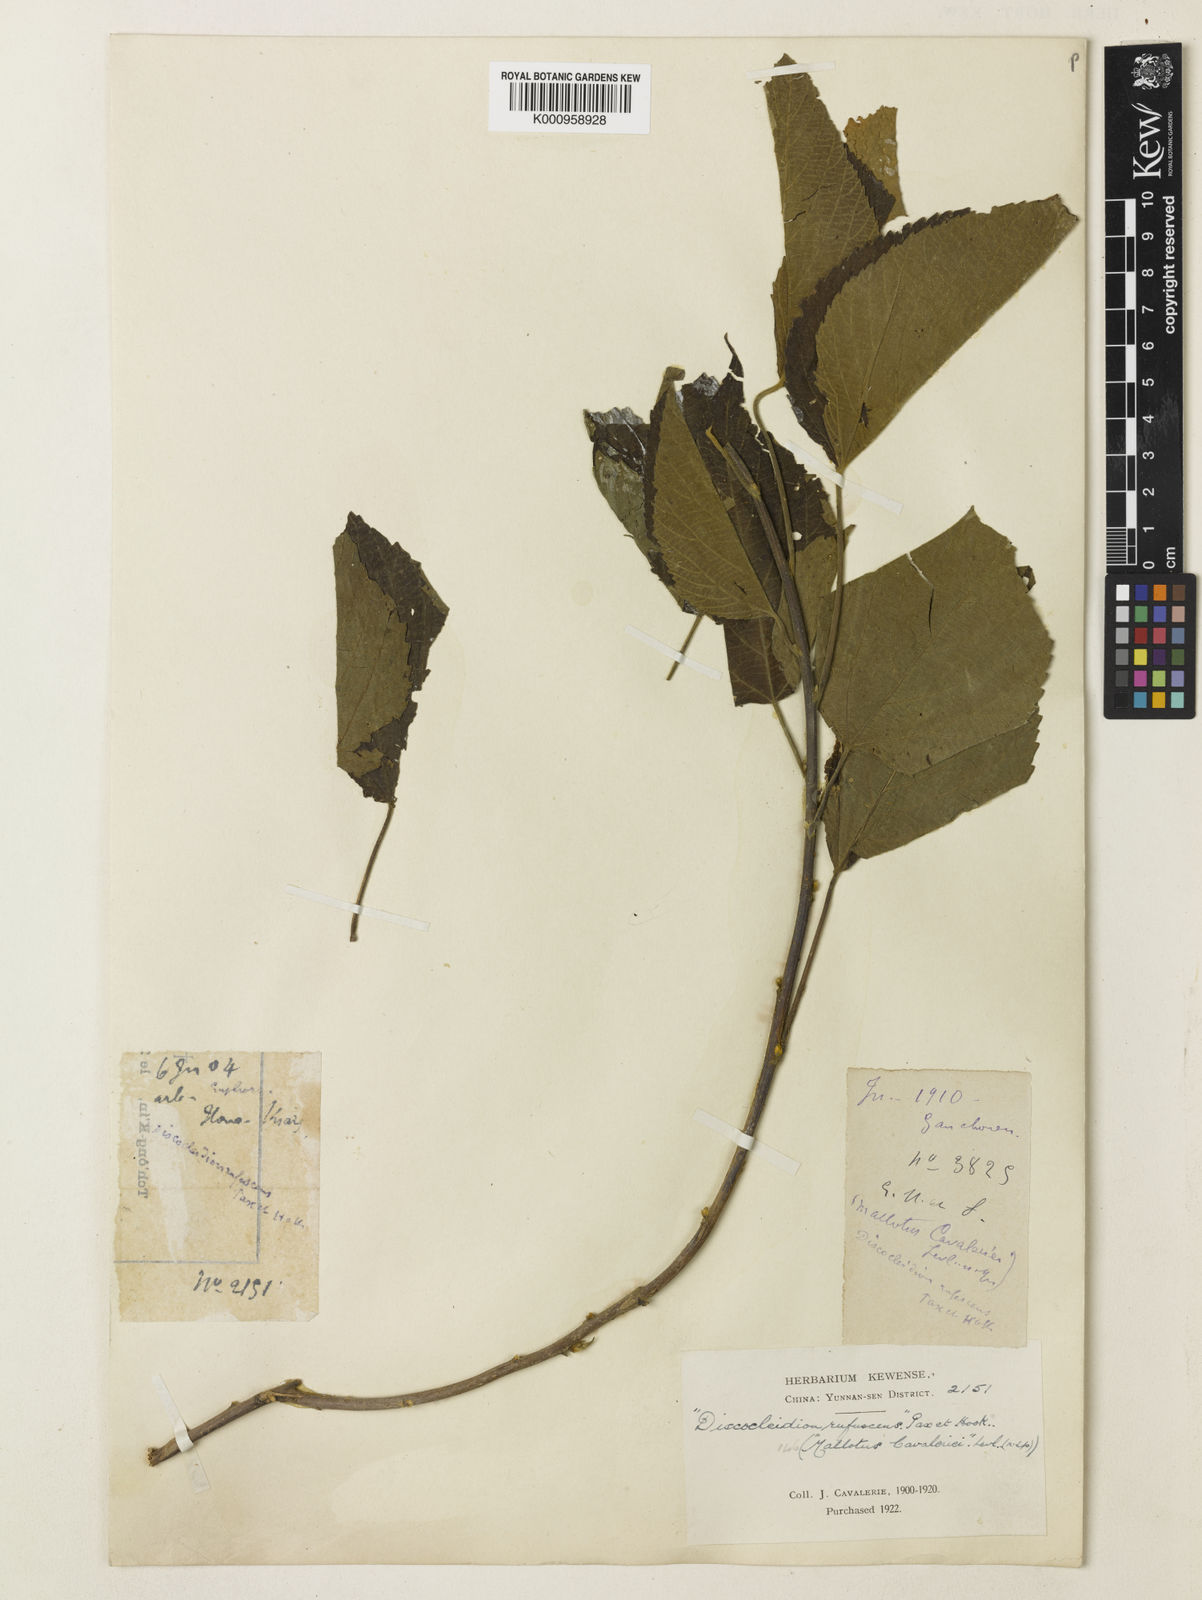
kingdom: Plantae
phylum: Tracheophyta
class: Magnoliopsida
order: Malpighiales
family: Euphorbiaceae
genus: Discocleidion
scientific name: Discocleidion rufescens
